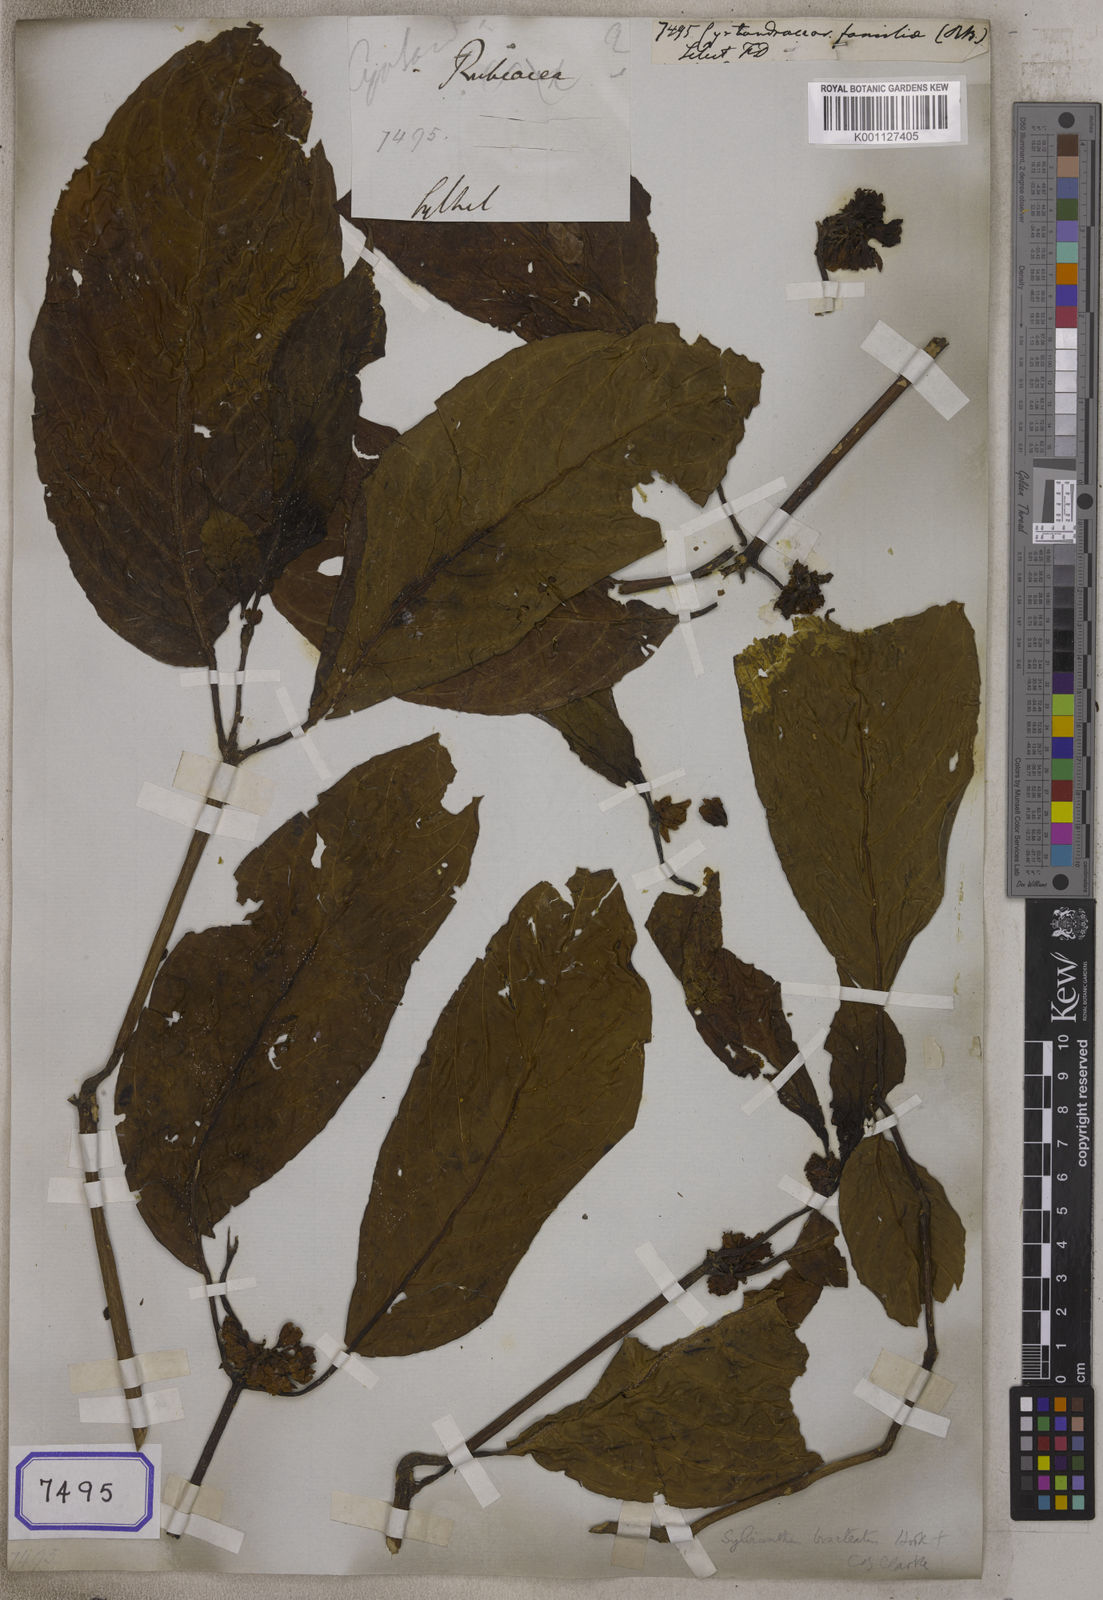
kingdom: Plantae
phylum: Tracheophyta
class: Magnoliopsida
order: Lamiales
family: Gesneriaceae
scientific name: Gesneriaceae
